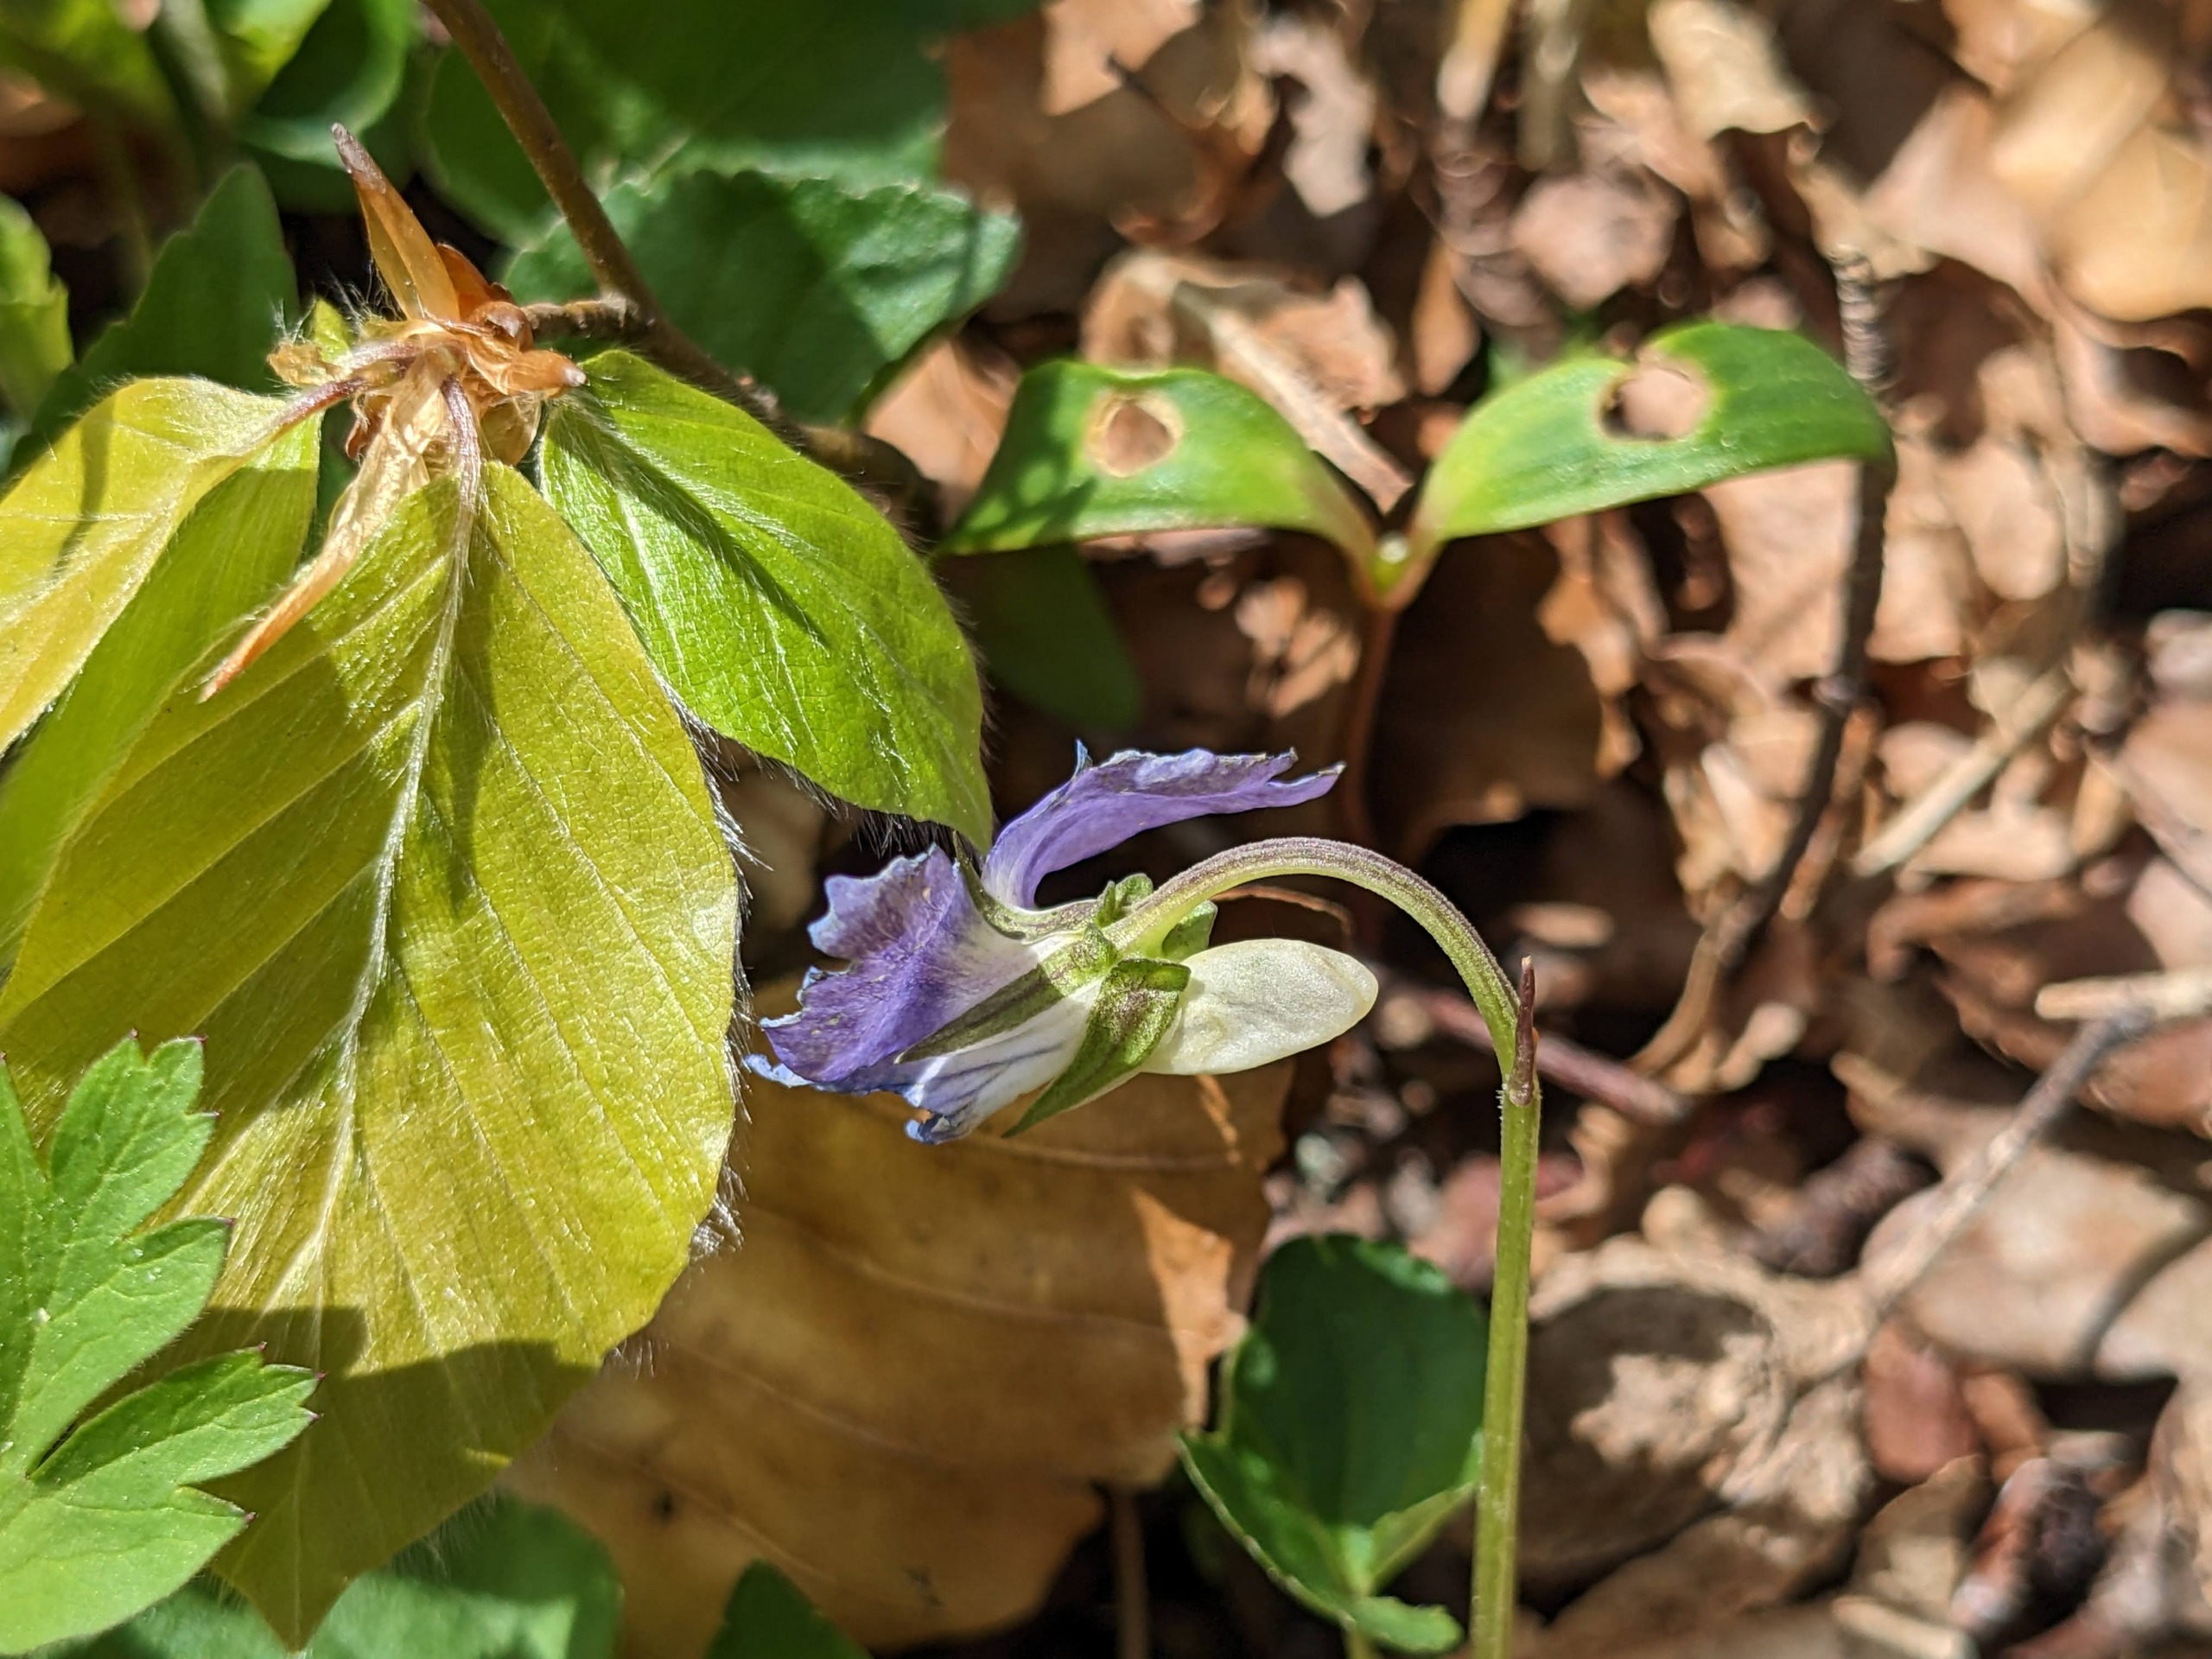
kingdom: Plantae
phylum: Tracheophyta
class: Magnoliopsida
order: Malpighiales
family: Violaceae
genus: Viola
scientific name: Viola riviniana
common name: Krat-viol
